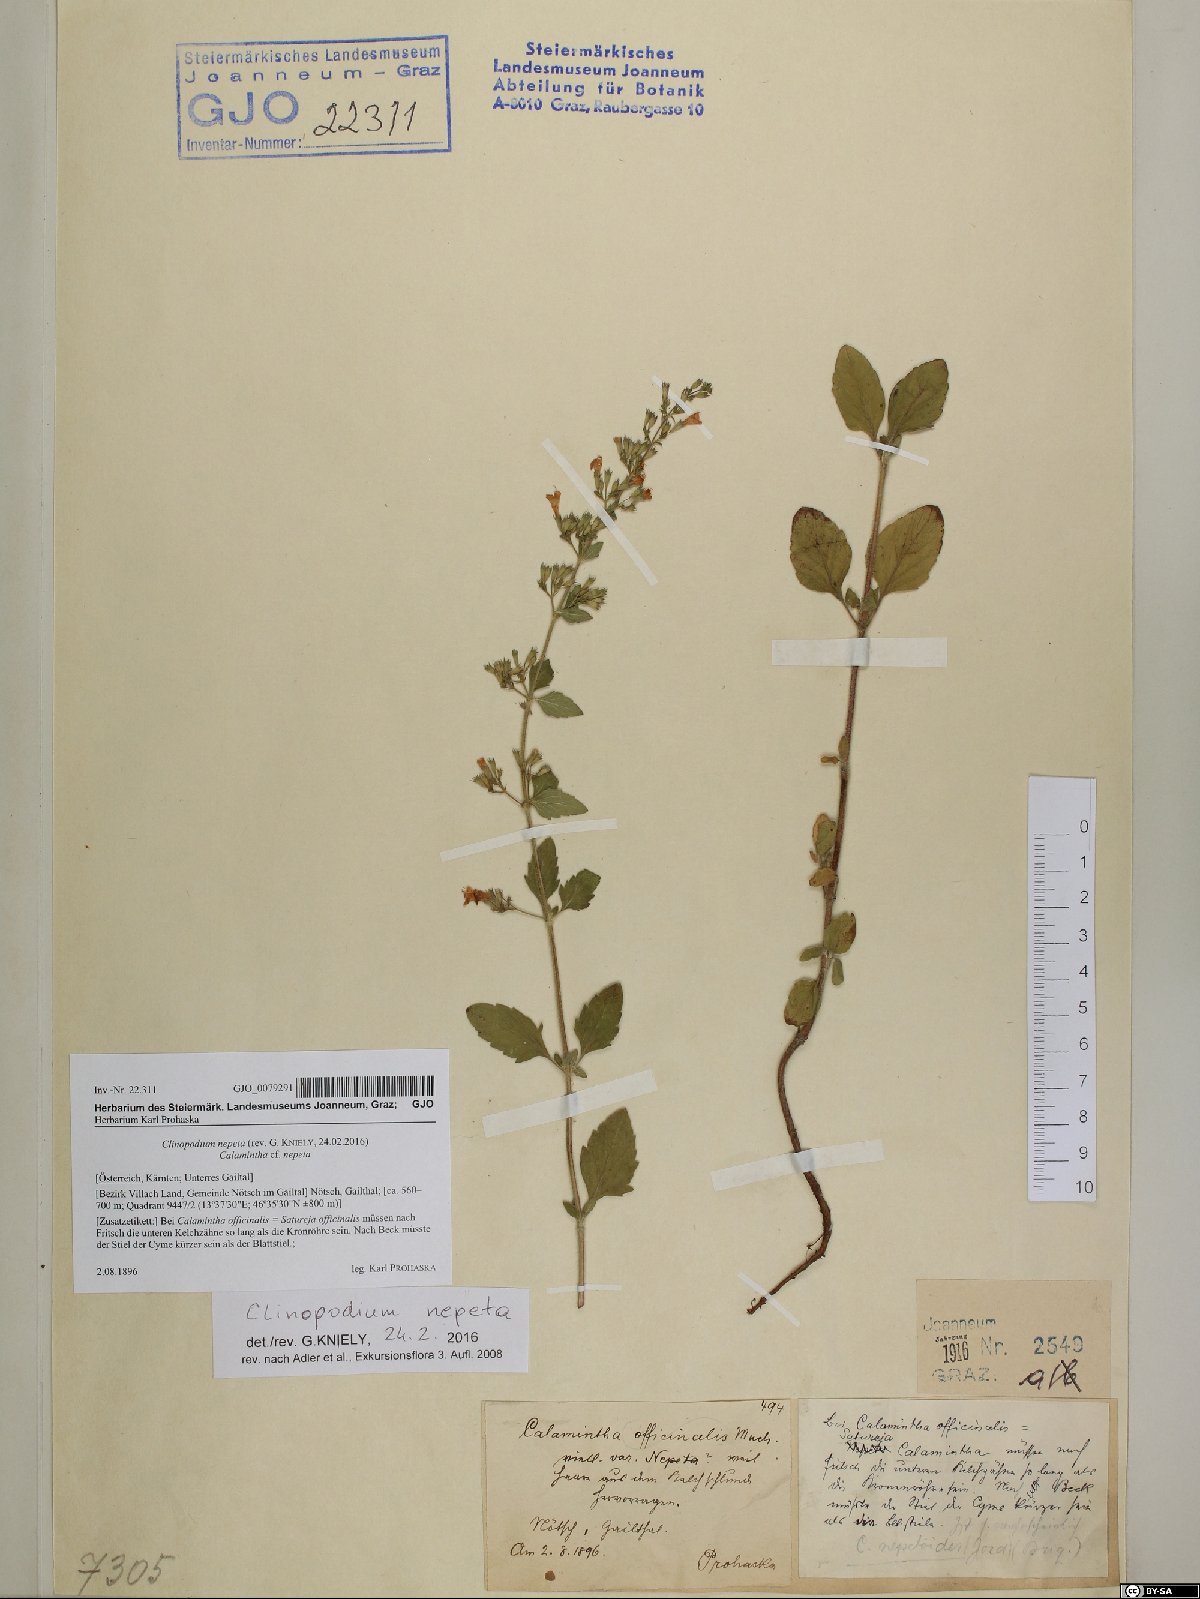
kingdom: Plantae
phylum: Tracheophyta
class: Magnoliopsida
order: Lamiales
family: Lamiaceae
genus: Clinopodium
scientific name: Clinopodium nepeta
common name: Lesser calamint
